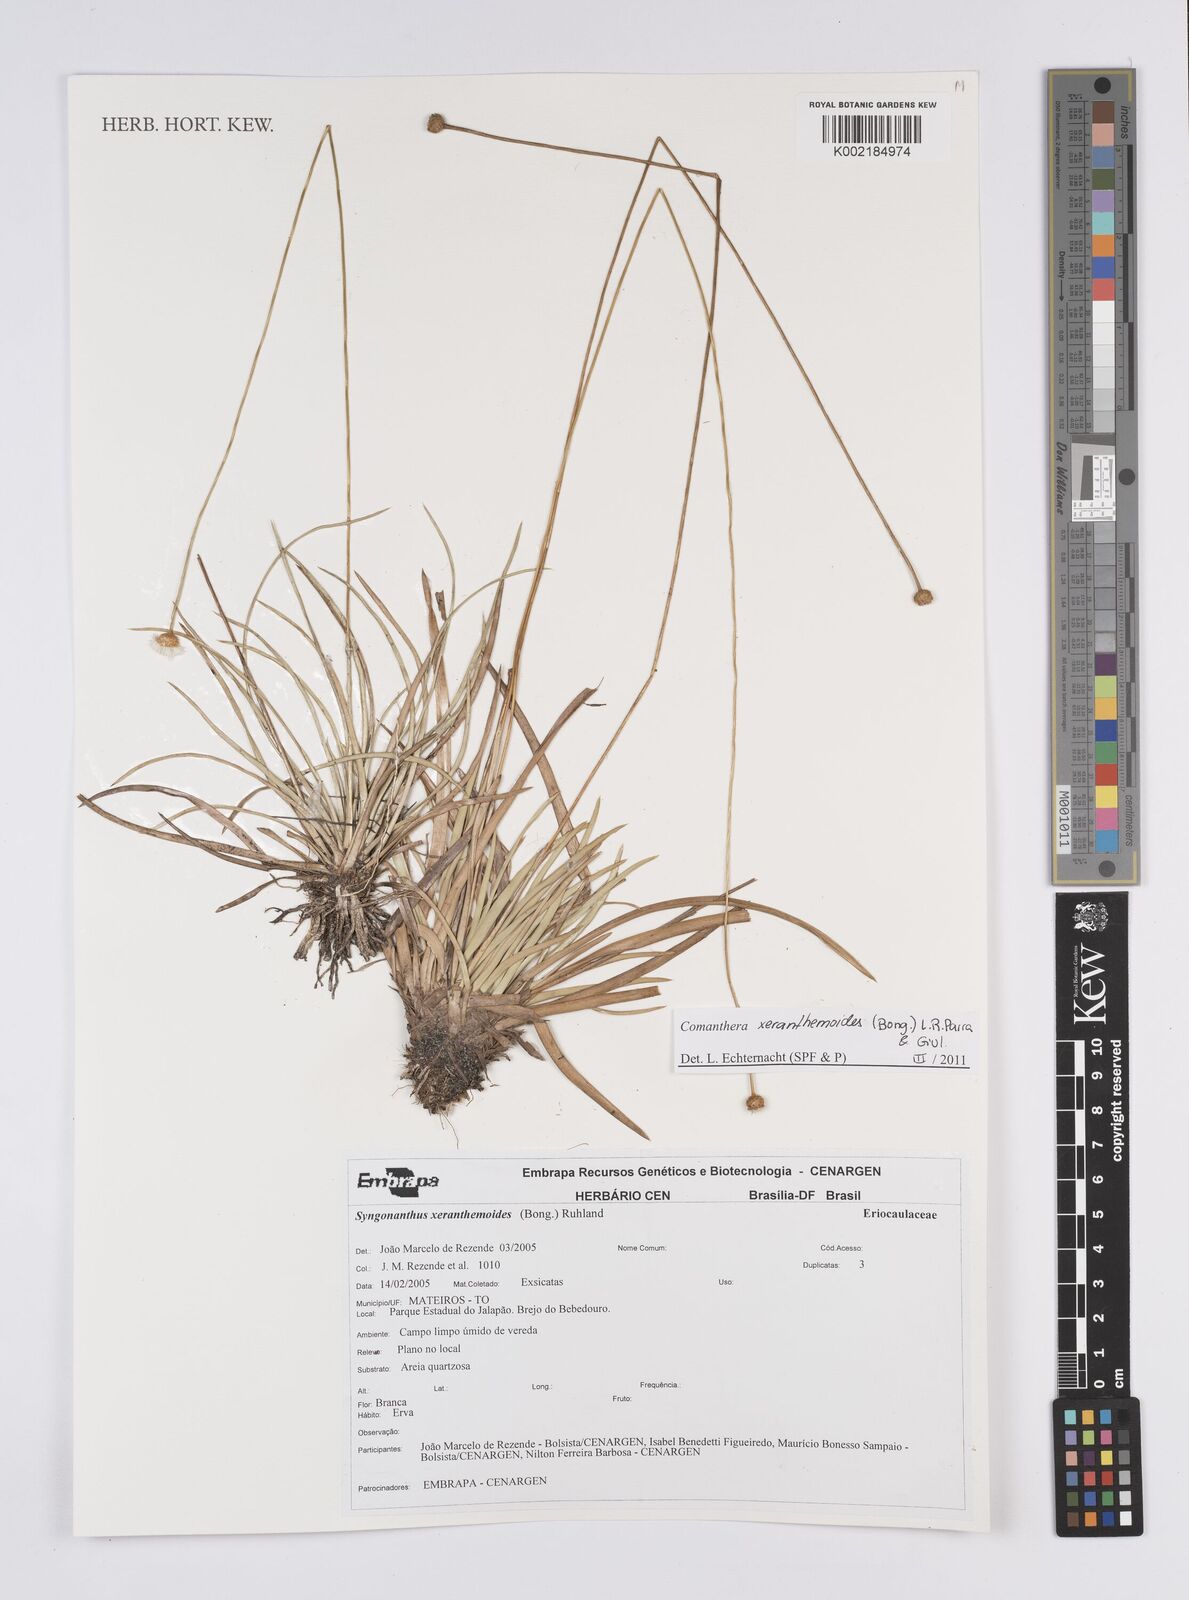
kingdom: Plantae
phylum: Tracheophyta
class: Liliopsida
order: Poales
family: Eriocaulaceae
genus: Comanthera
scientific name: Comanthera xeranthemoides
